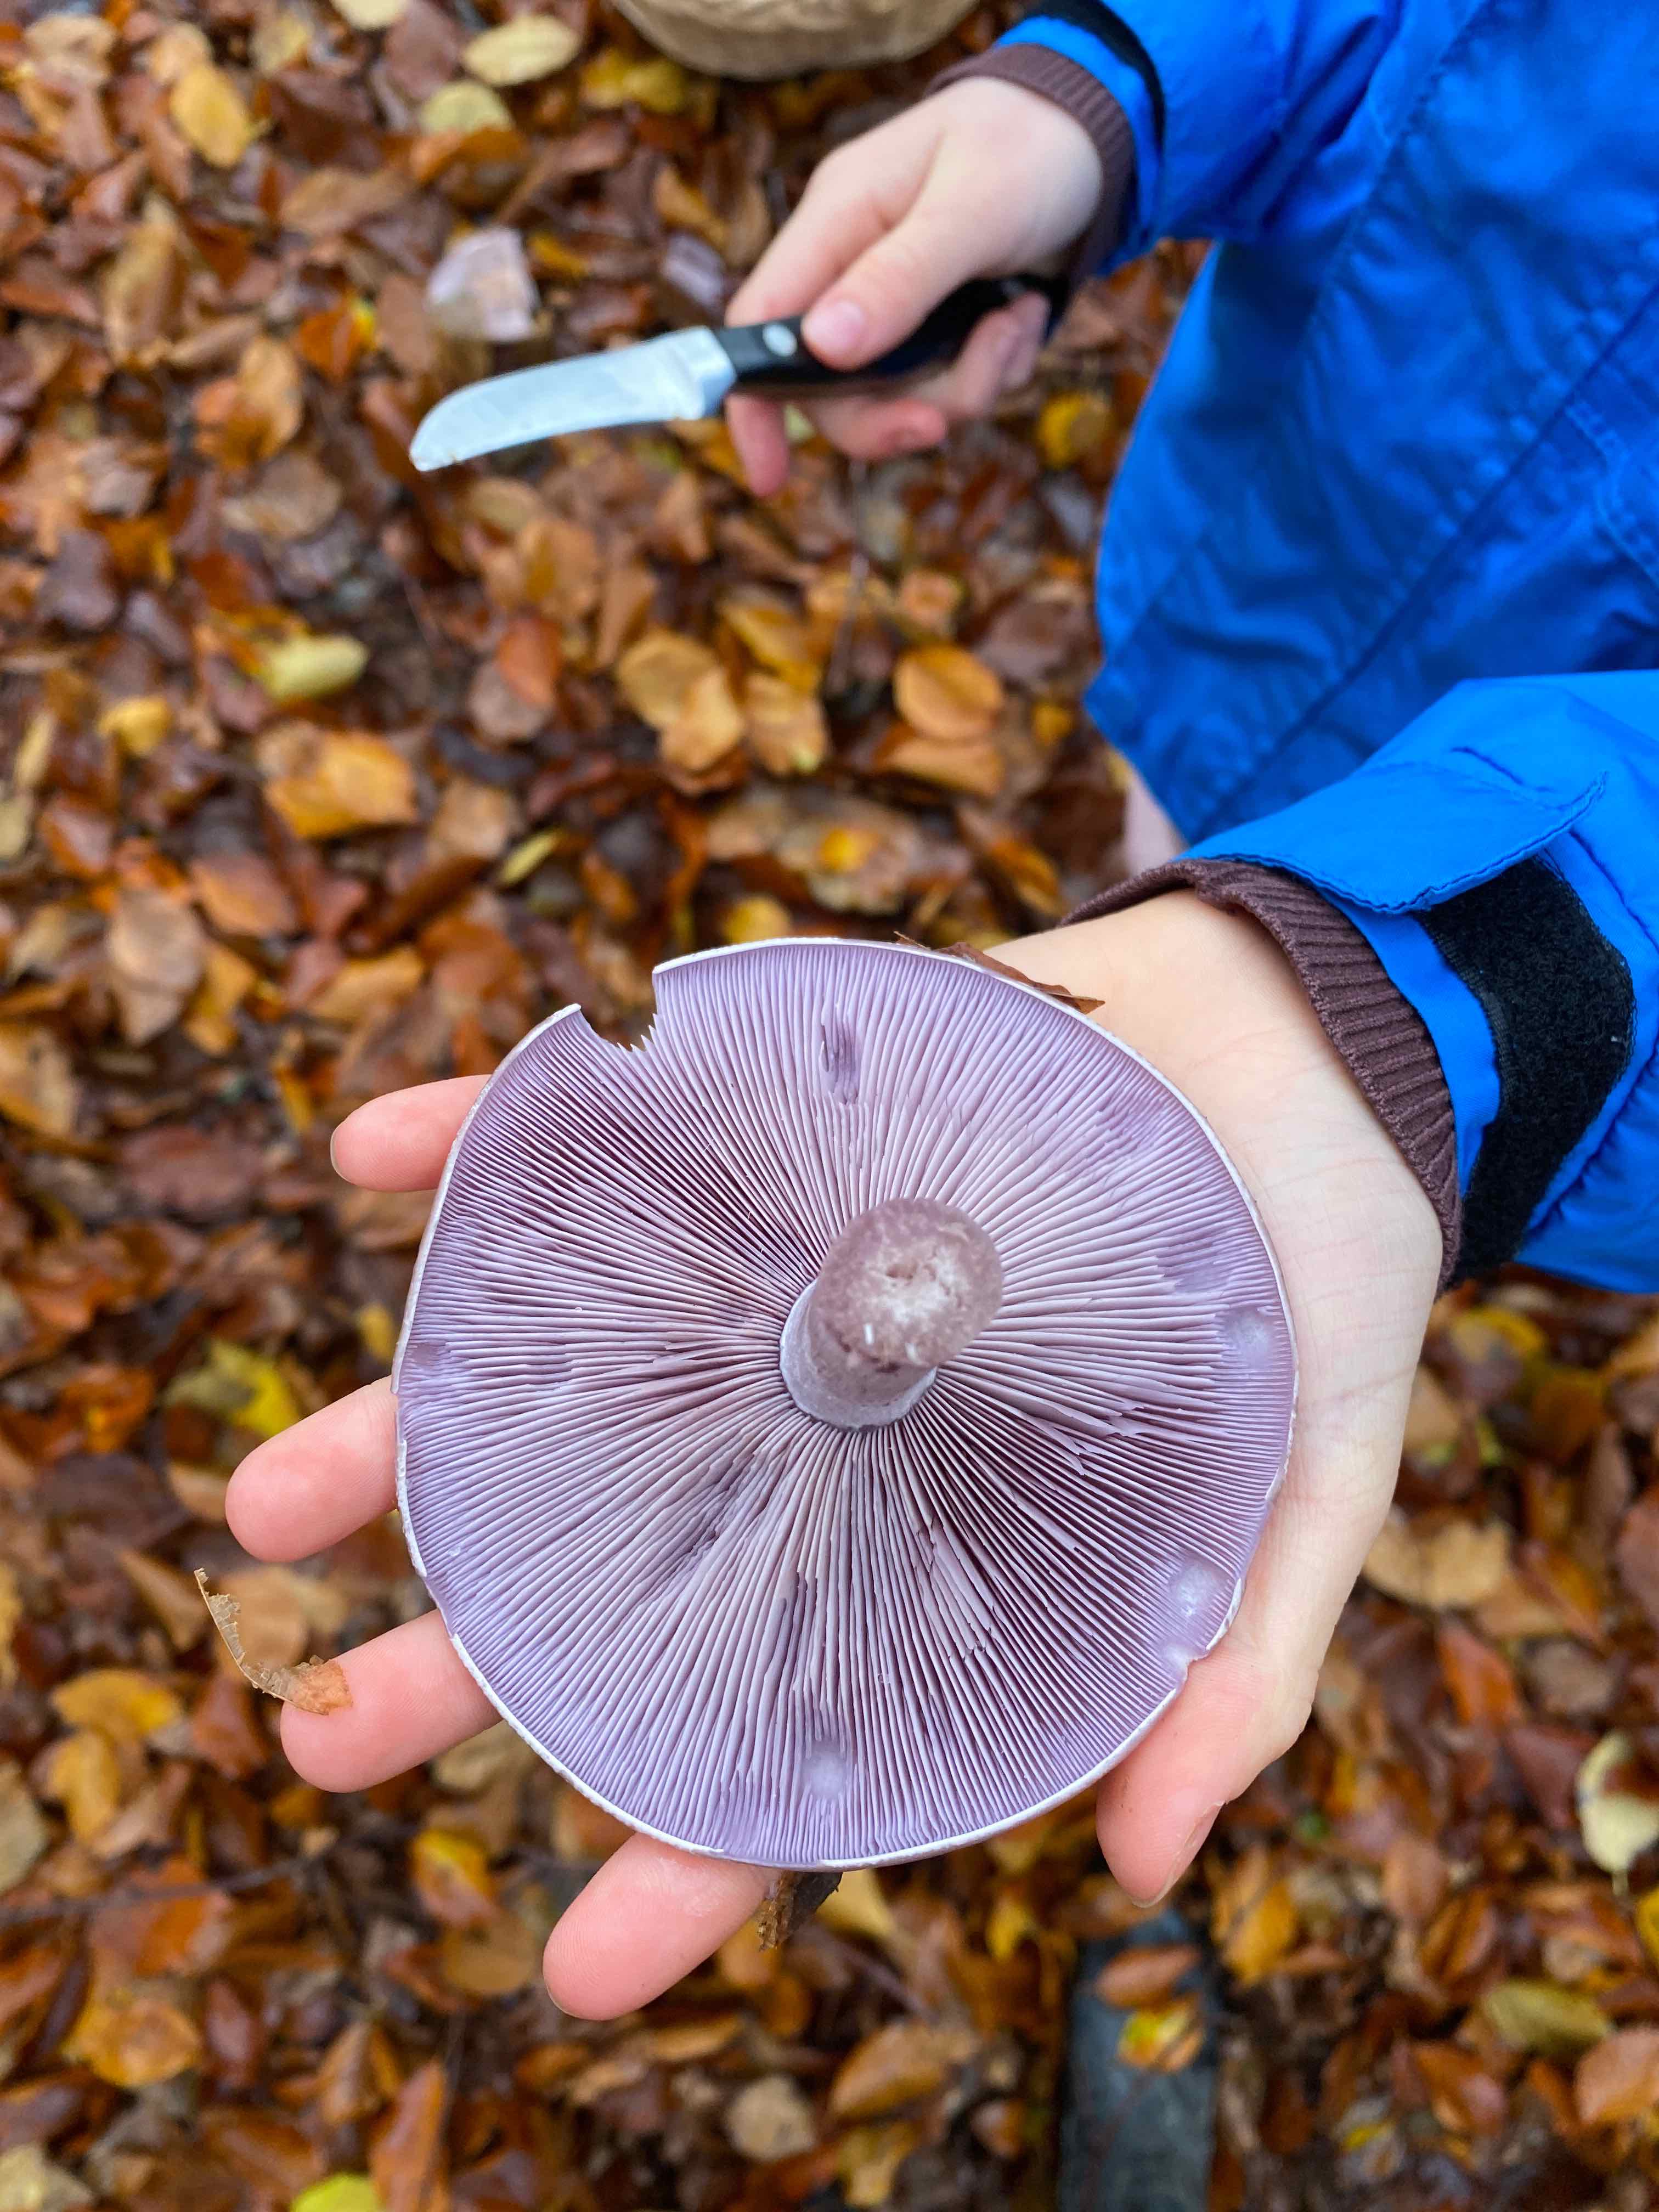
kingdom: Fungi
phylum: Basidiomycota
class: Agaricomycetes
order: Agaricales
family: Tricholomataceae
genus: Lepista
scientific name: Lepista nuda
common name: violet hekseringshat
